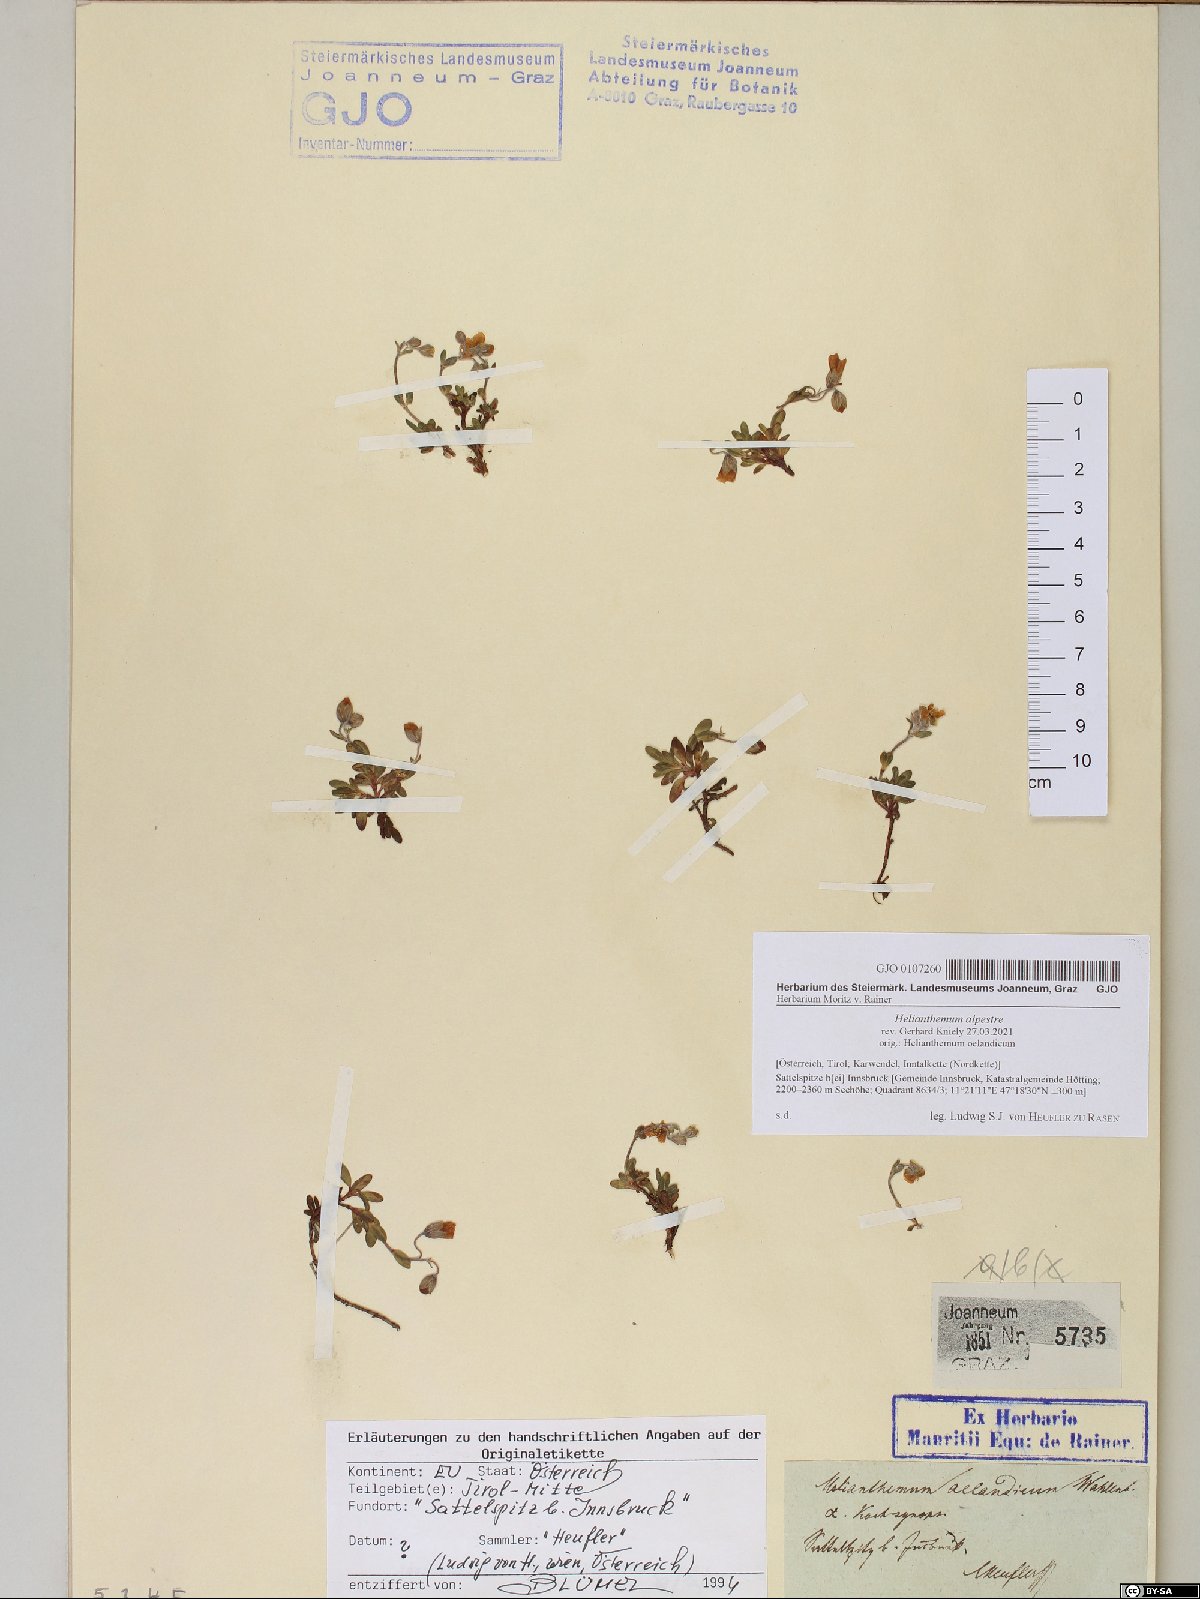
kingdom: Plantae
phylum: Tracheophyta
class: Magnoliopsida
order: Malvales
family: Cistaceae
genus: Helianthemum
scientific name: Helianthemum alpestre
